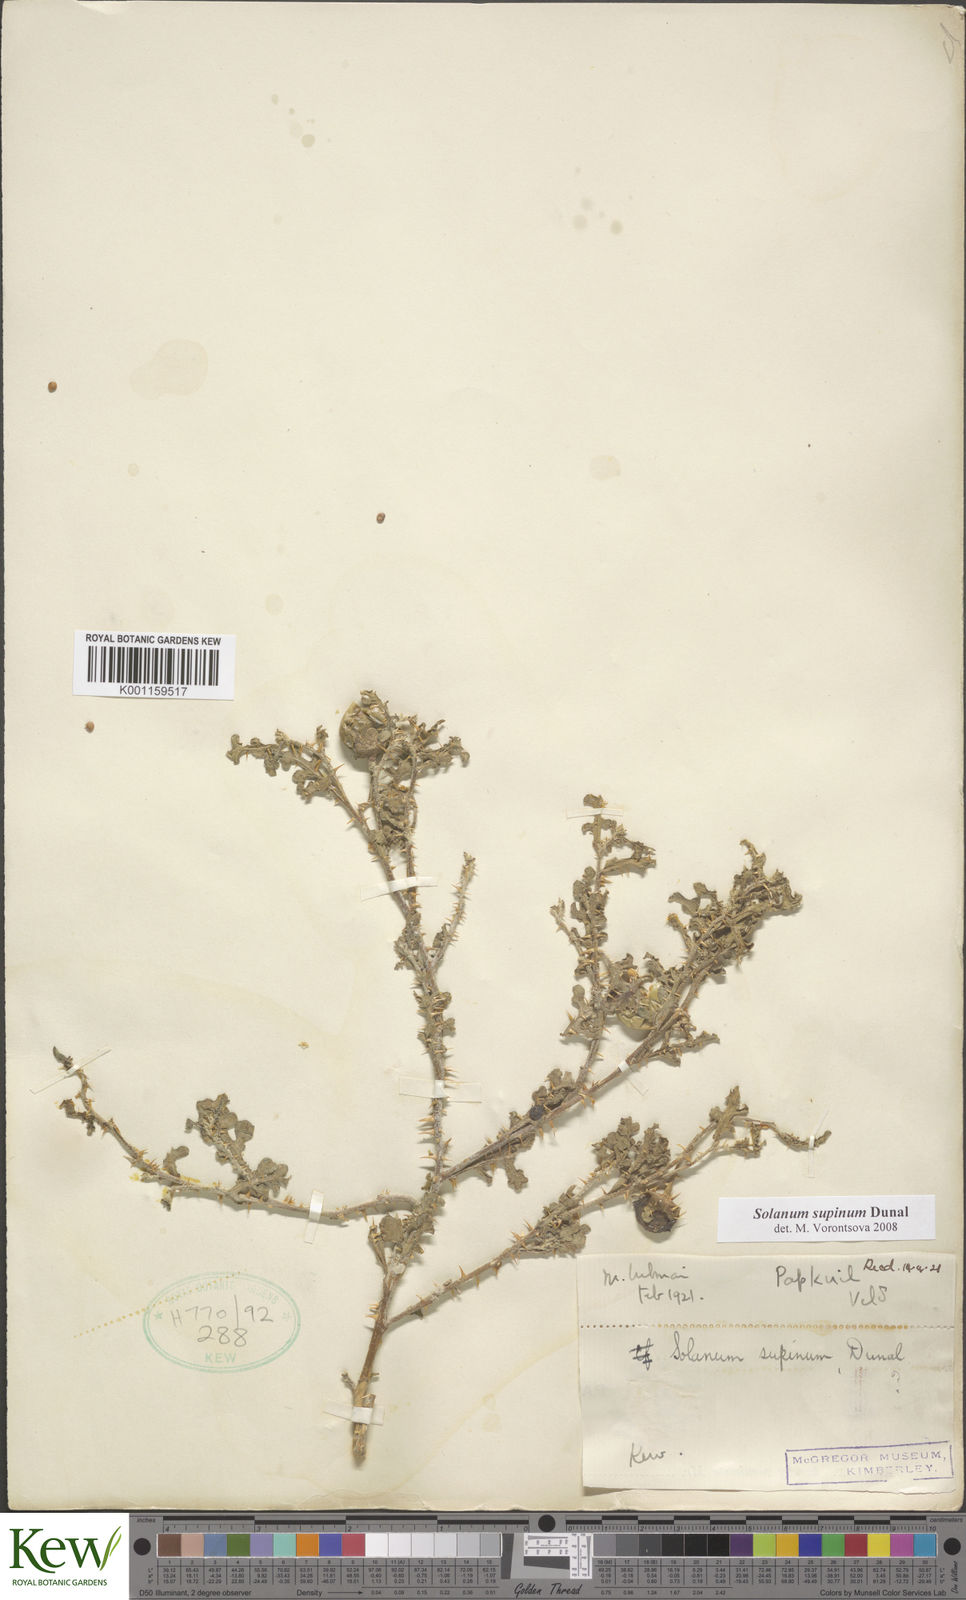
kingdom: Plantae
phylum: Tracheophyta
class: Magnoliopsida
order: Solanales
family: Solanaceae
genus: Solanum
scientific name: Solanum supinum
